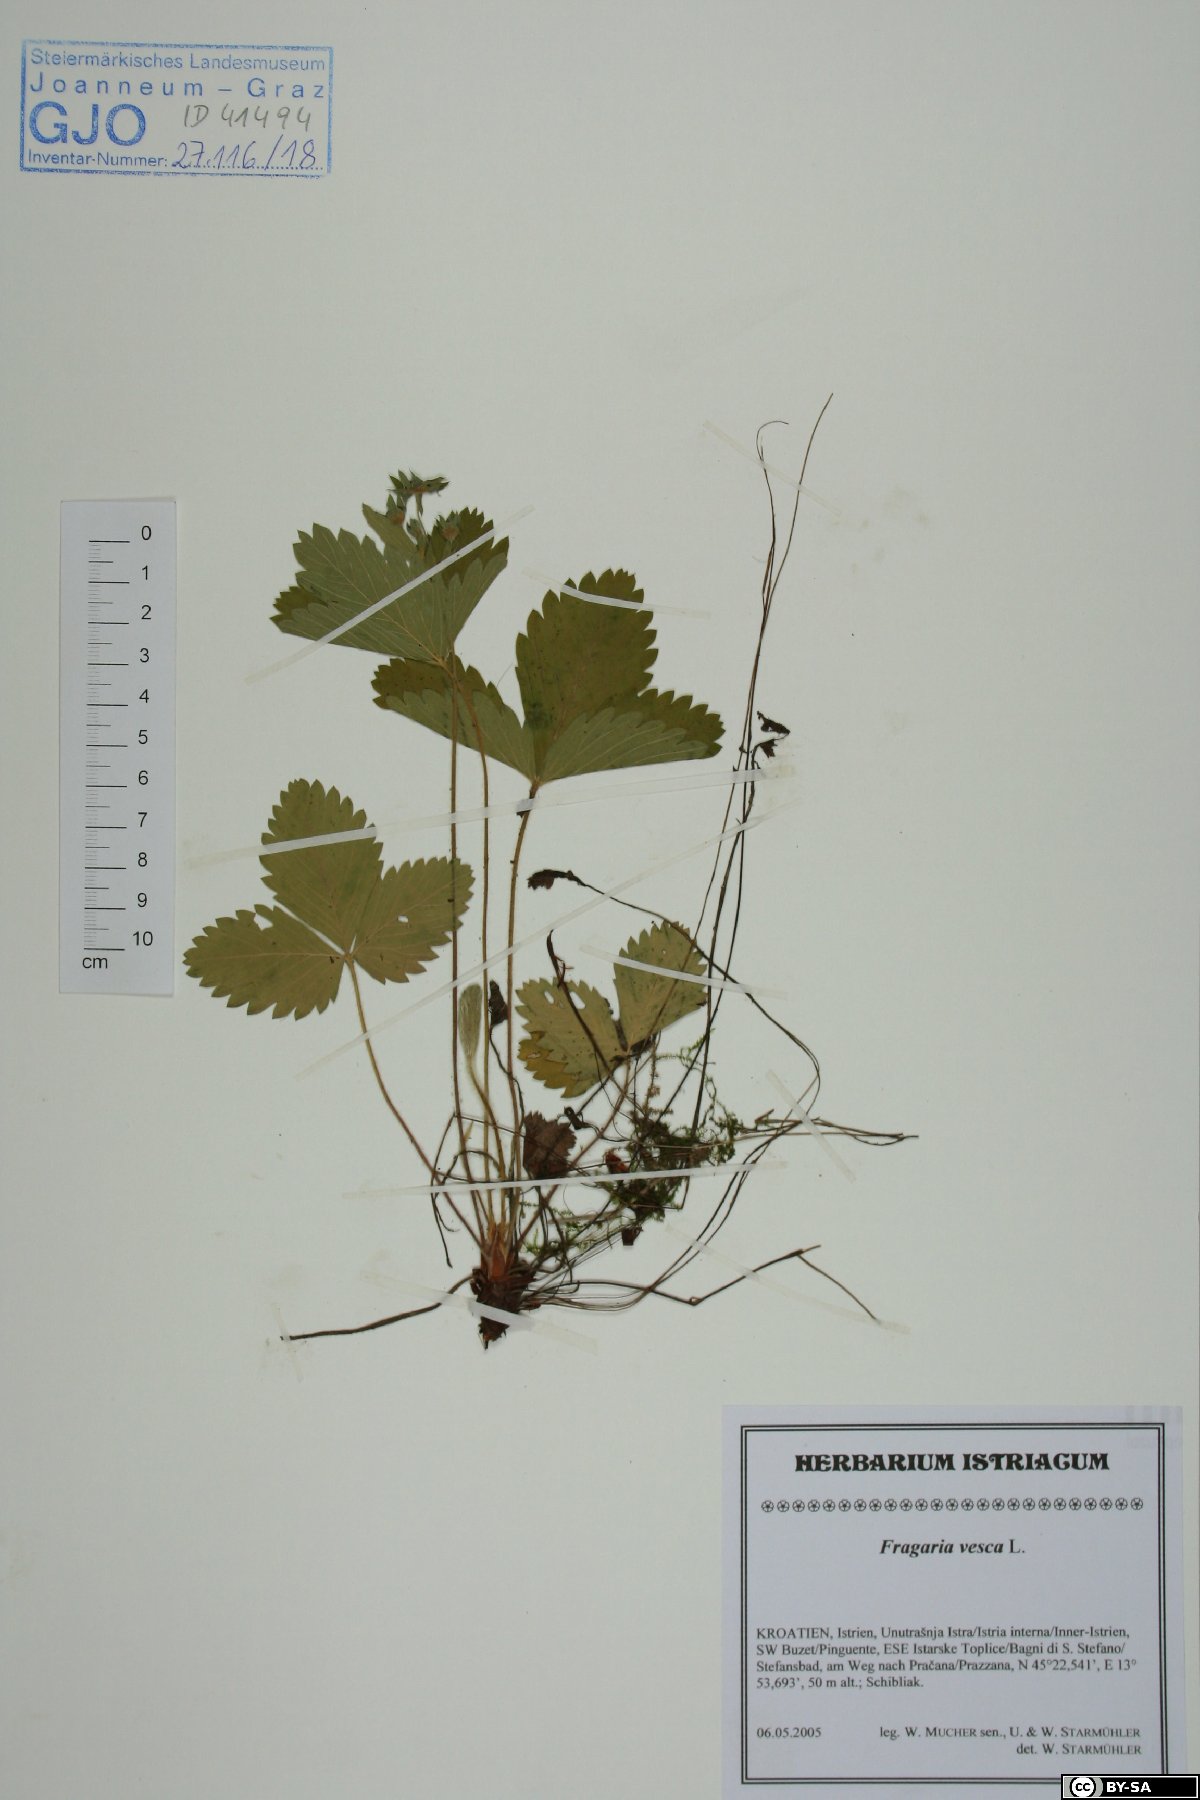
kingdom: Plantae
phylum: Tracheophyta
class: Magnoliopsida
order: Rosales
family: Rosaceae
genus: Fragaria
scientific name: Fragaria vesca
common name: Wild strawberry
